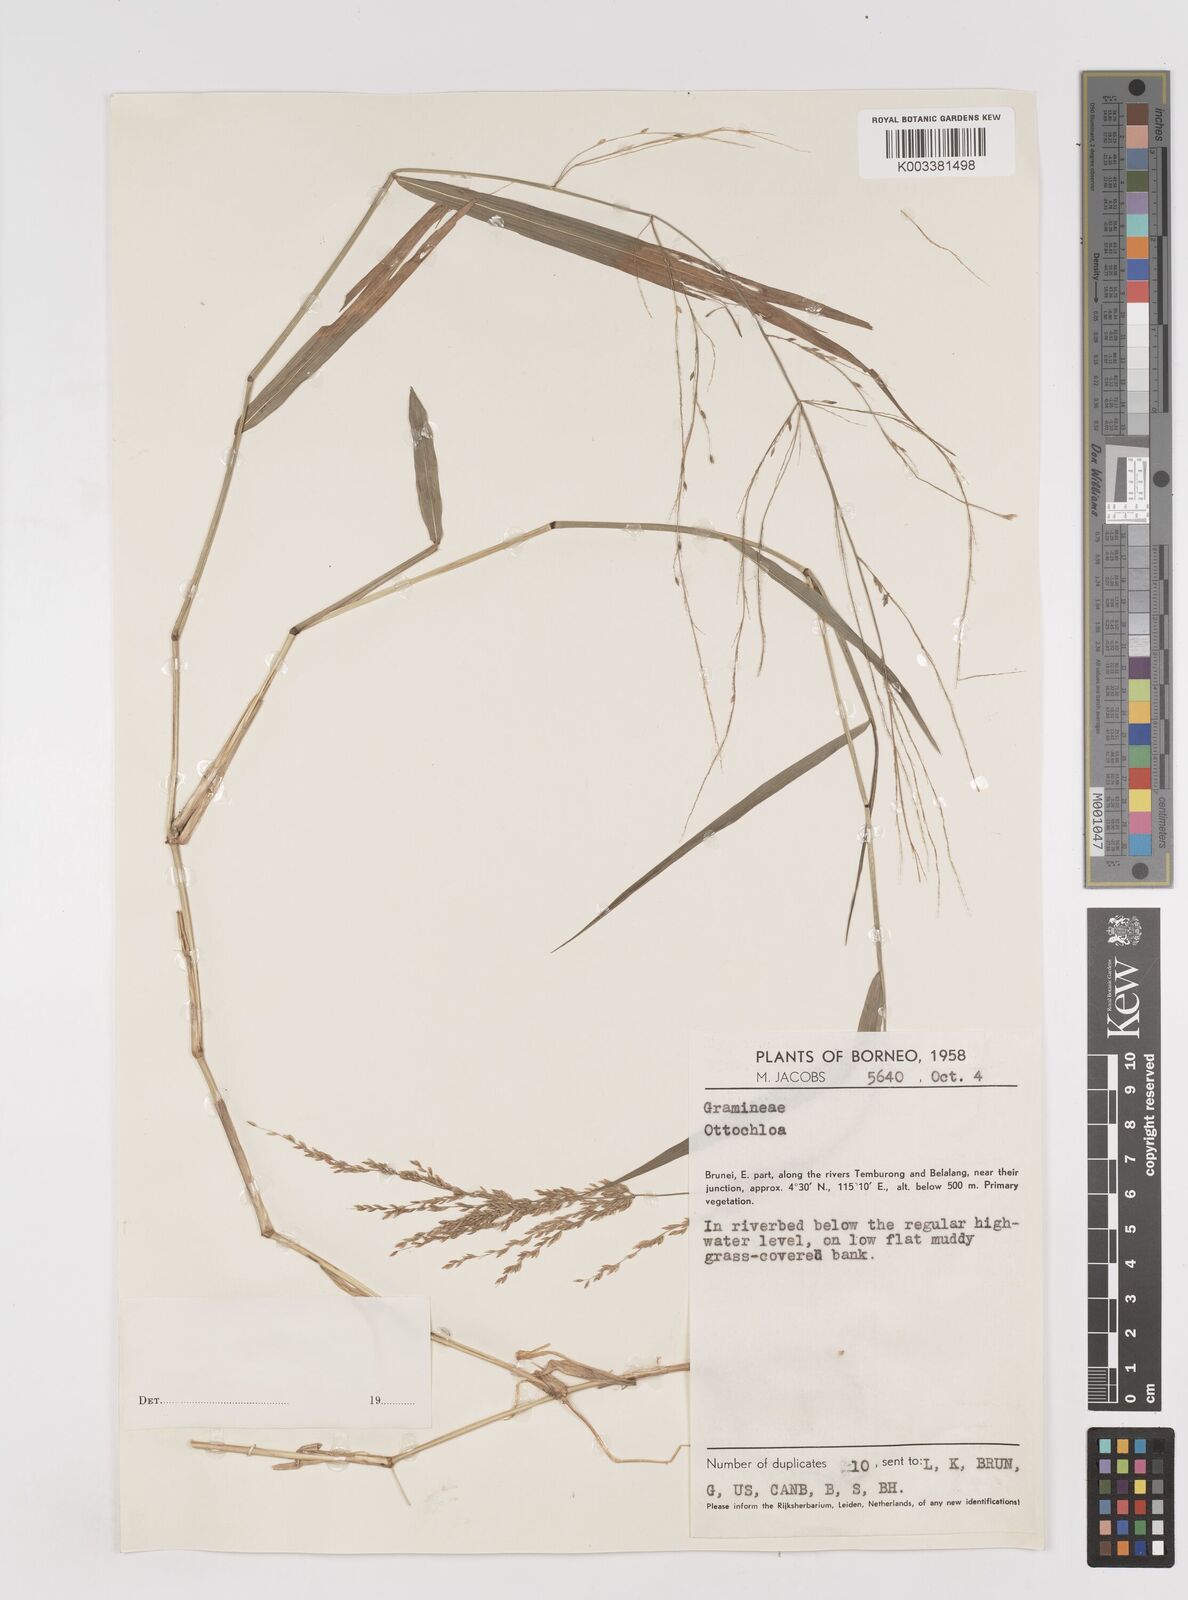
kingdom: Plantae
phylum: Tracheophyta
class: Liliopsida
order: Poales
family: Poaceae
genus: Ottochloa
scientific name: Ottochloa nodosa
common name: Slender-panic grass
